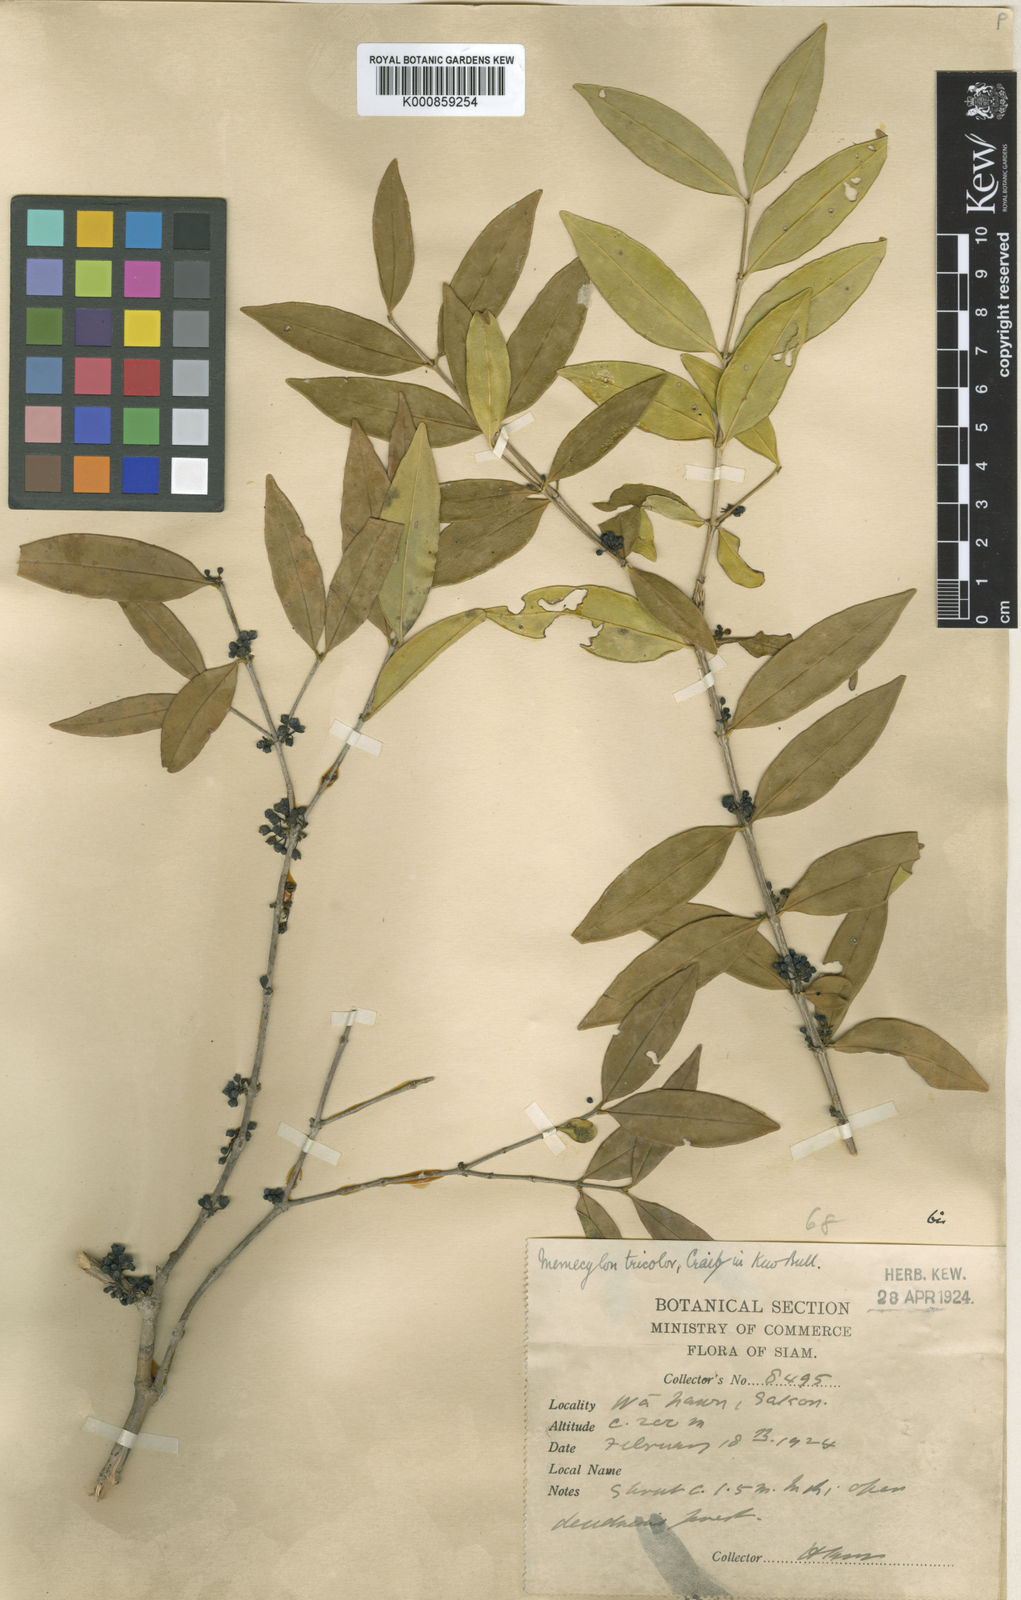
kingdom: Plantae
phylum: Tracheophyta
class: Magnoliopsida
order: Myrtales
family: Melastomataceae
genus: Memecylon
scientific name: Memecylon tricolor
